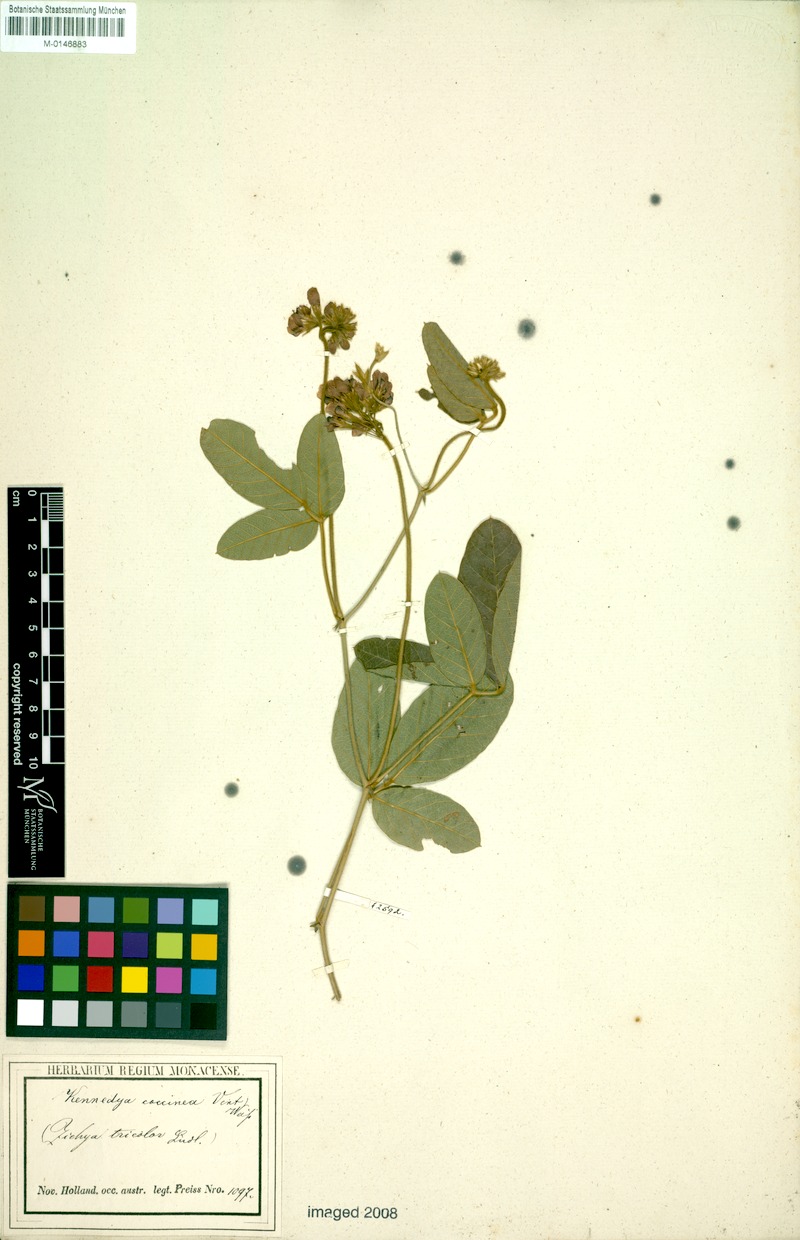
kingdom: Plantae
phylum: Tracheophyta
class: Magnoliopsida
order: Fabales
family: Fabaceae
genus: Kennedia
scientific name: Kennedia coccinea
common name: Coralvine
